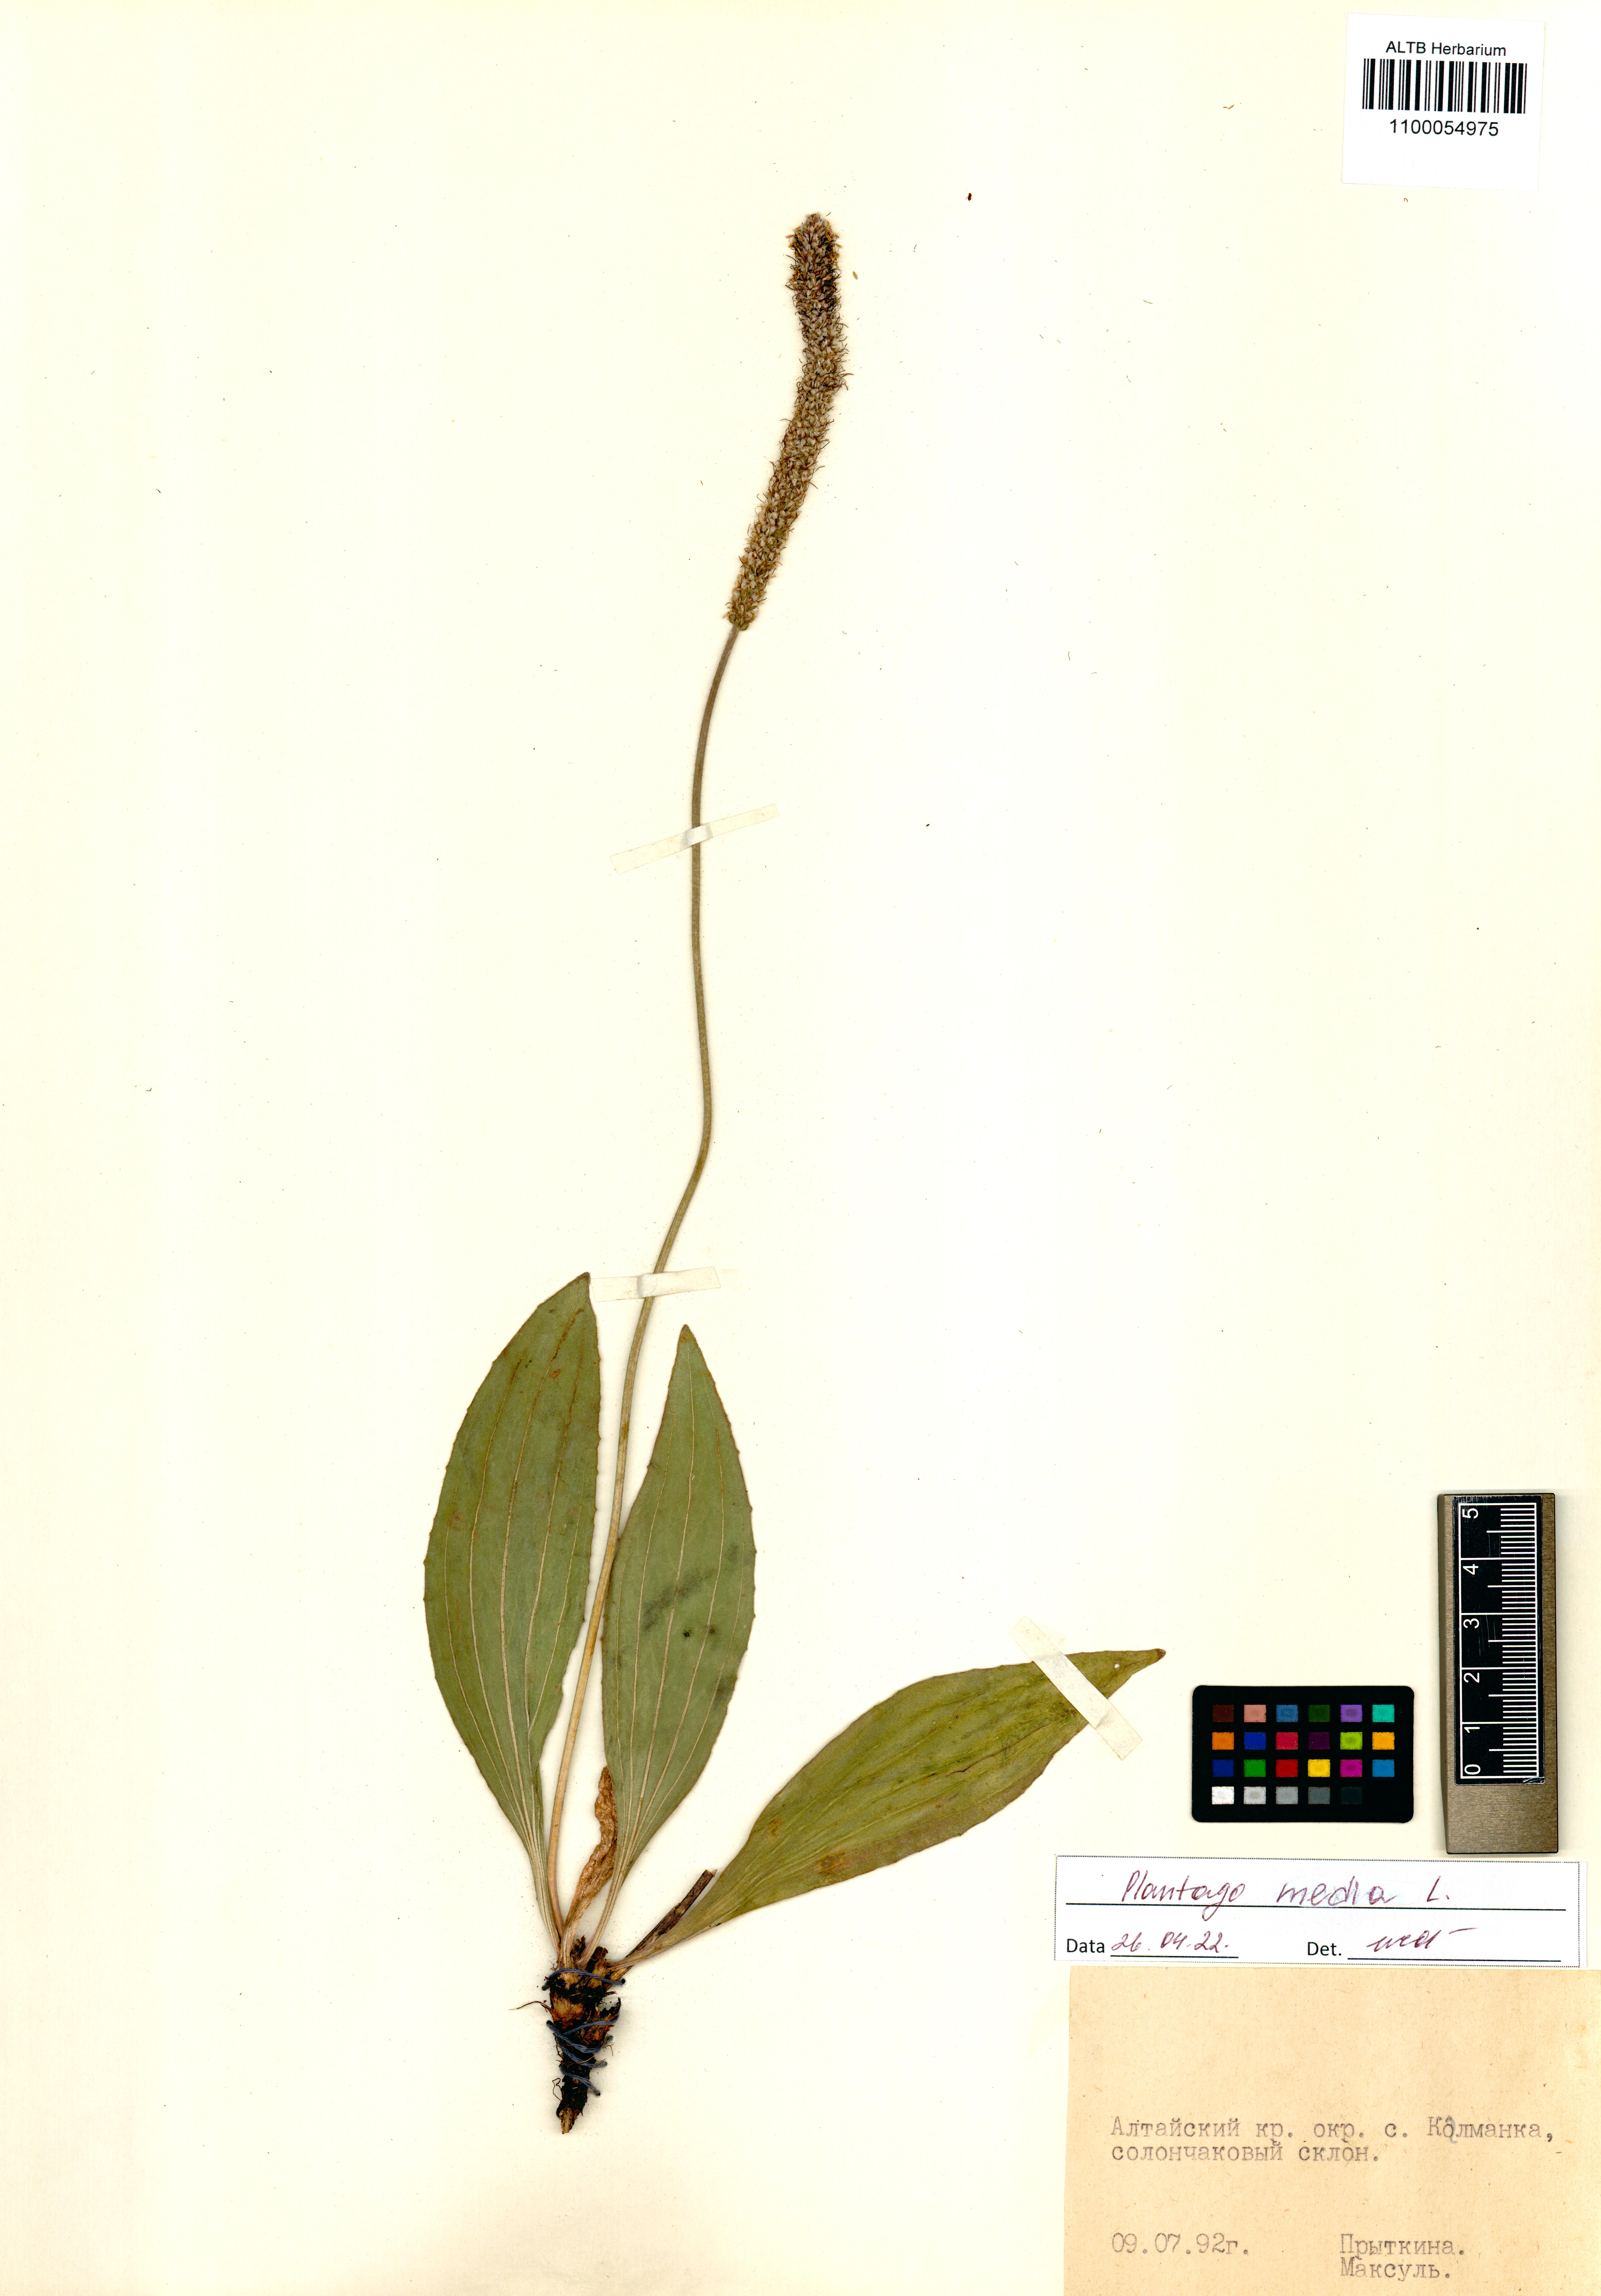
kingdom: Plantae
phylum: Tracheophyta
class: Magnoliopsida
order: Lamiales
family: Plantaginaceae
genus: Plantago
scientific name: Plantago media
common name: Hoary plantain
